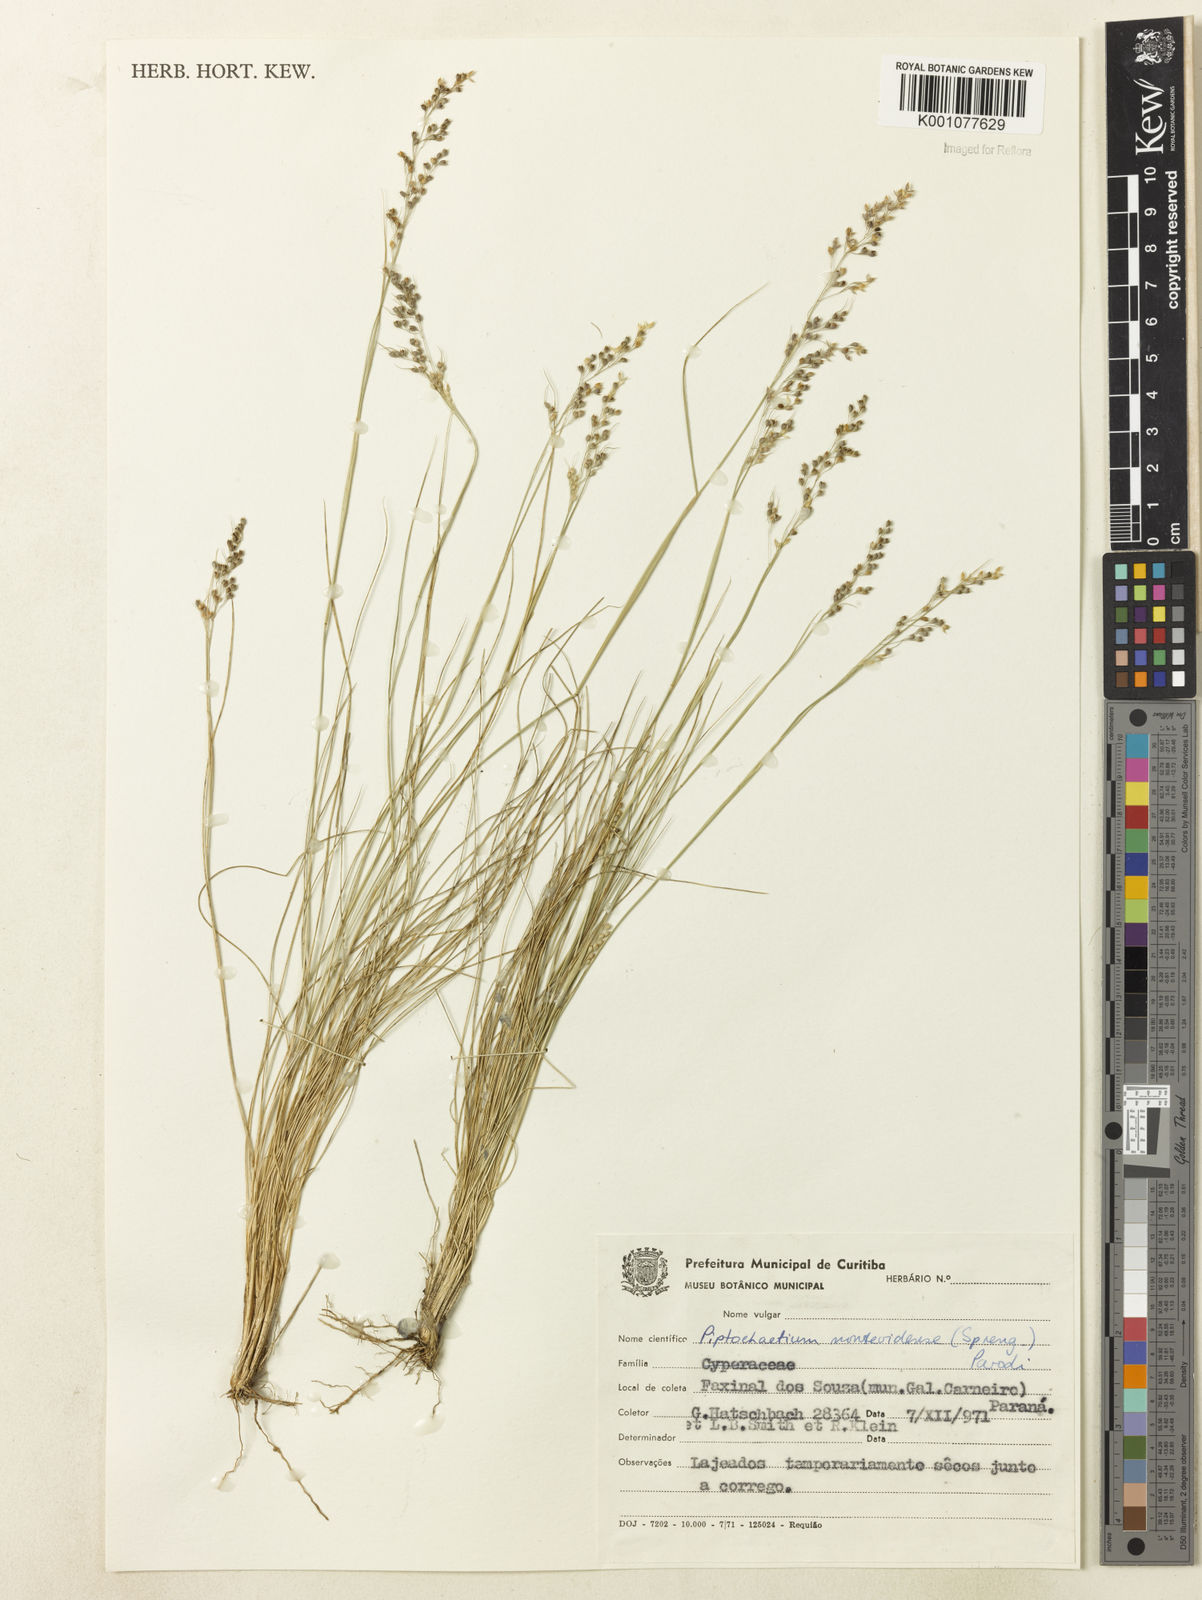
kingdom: Plantae
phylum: Tracheophyta
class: Liliopsida
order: Poales
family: Poaceae
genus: Piptochaetium
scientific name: Piptochaetium montevidense
